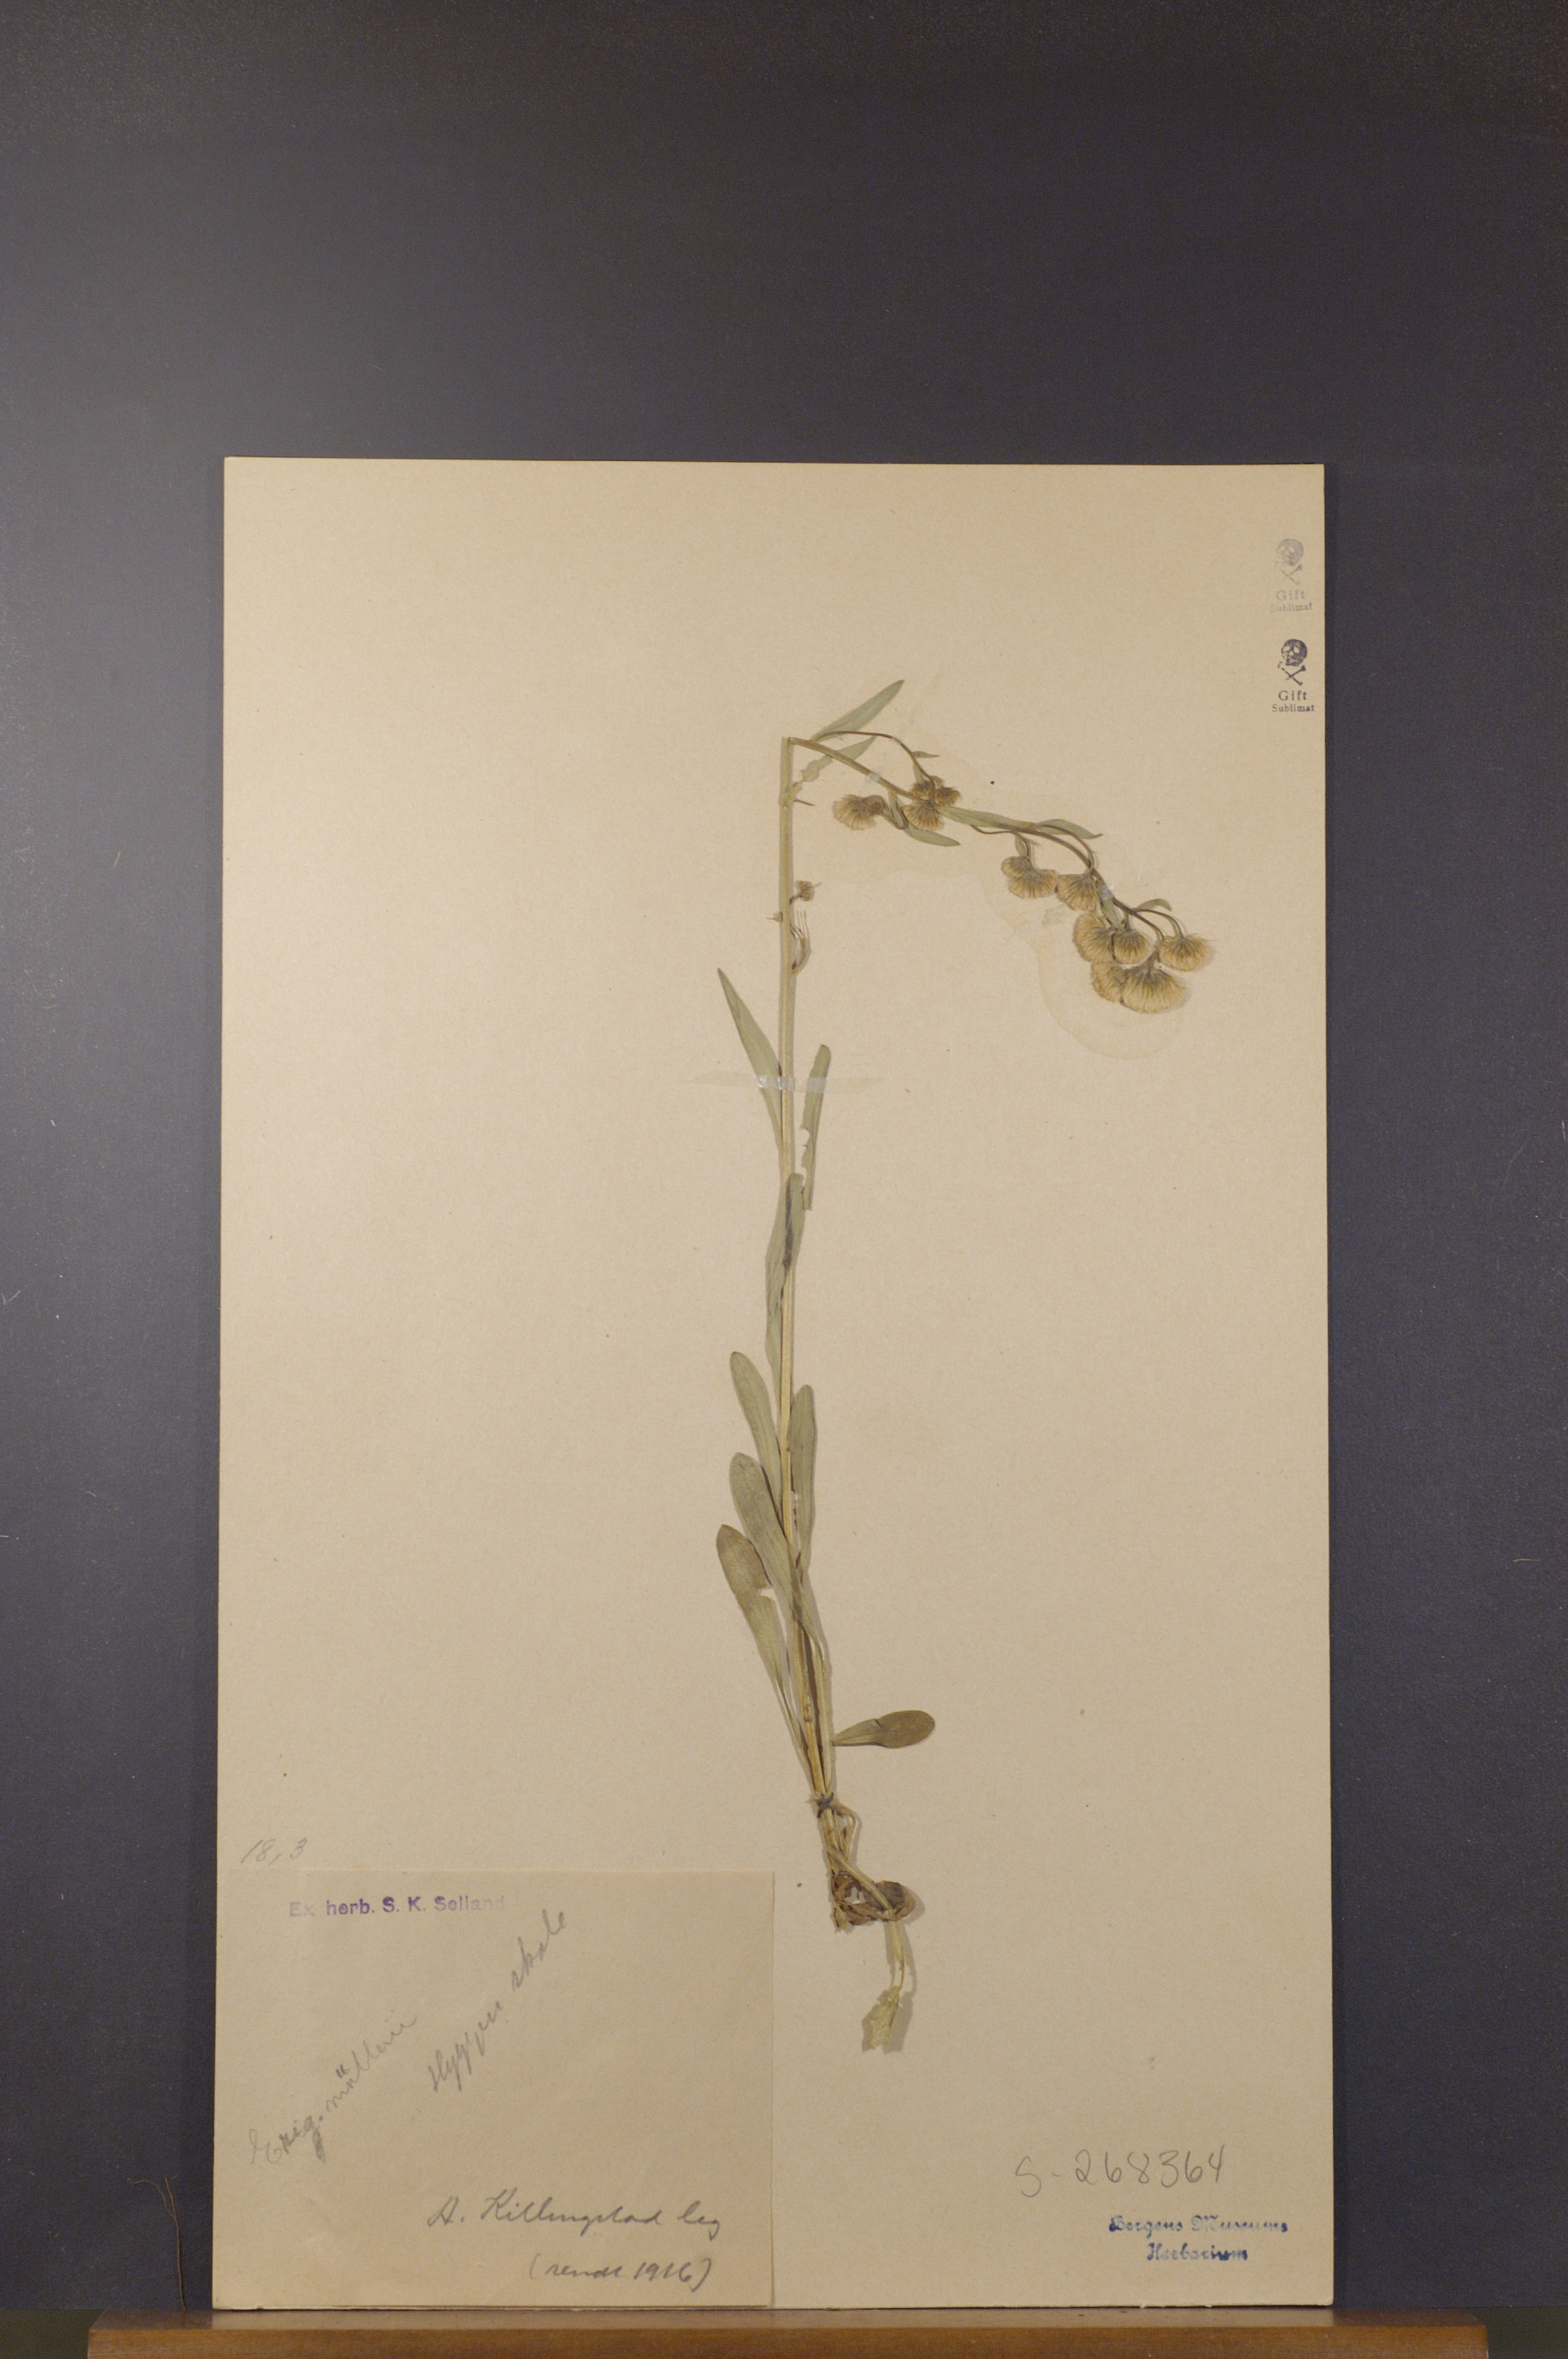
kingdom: Plantae
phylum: Tracheophyta
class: Magnoliopsida
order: Asterales
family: Asteraceae
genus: Erigeron
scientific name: Erigeron acris
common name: Blue fleabane
